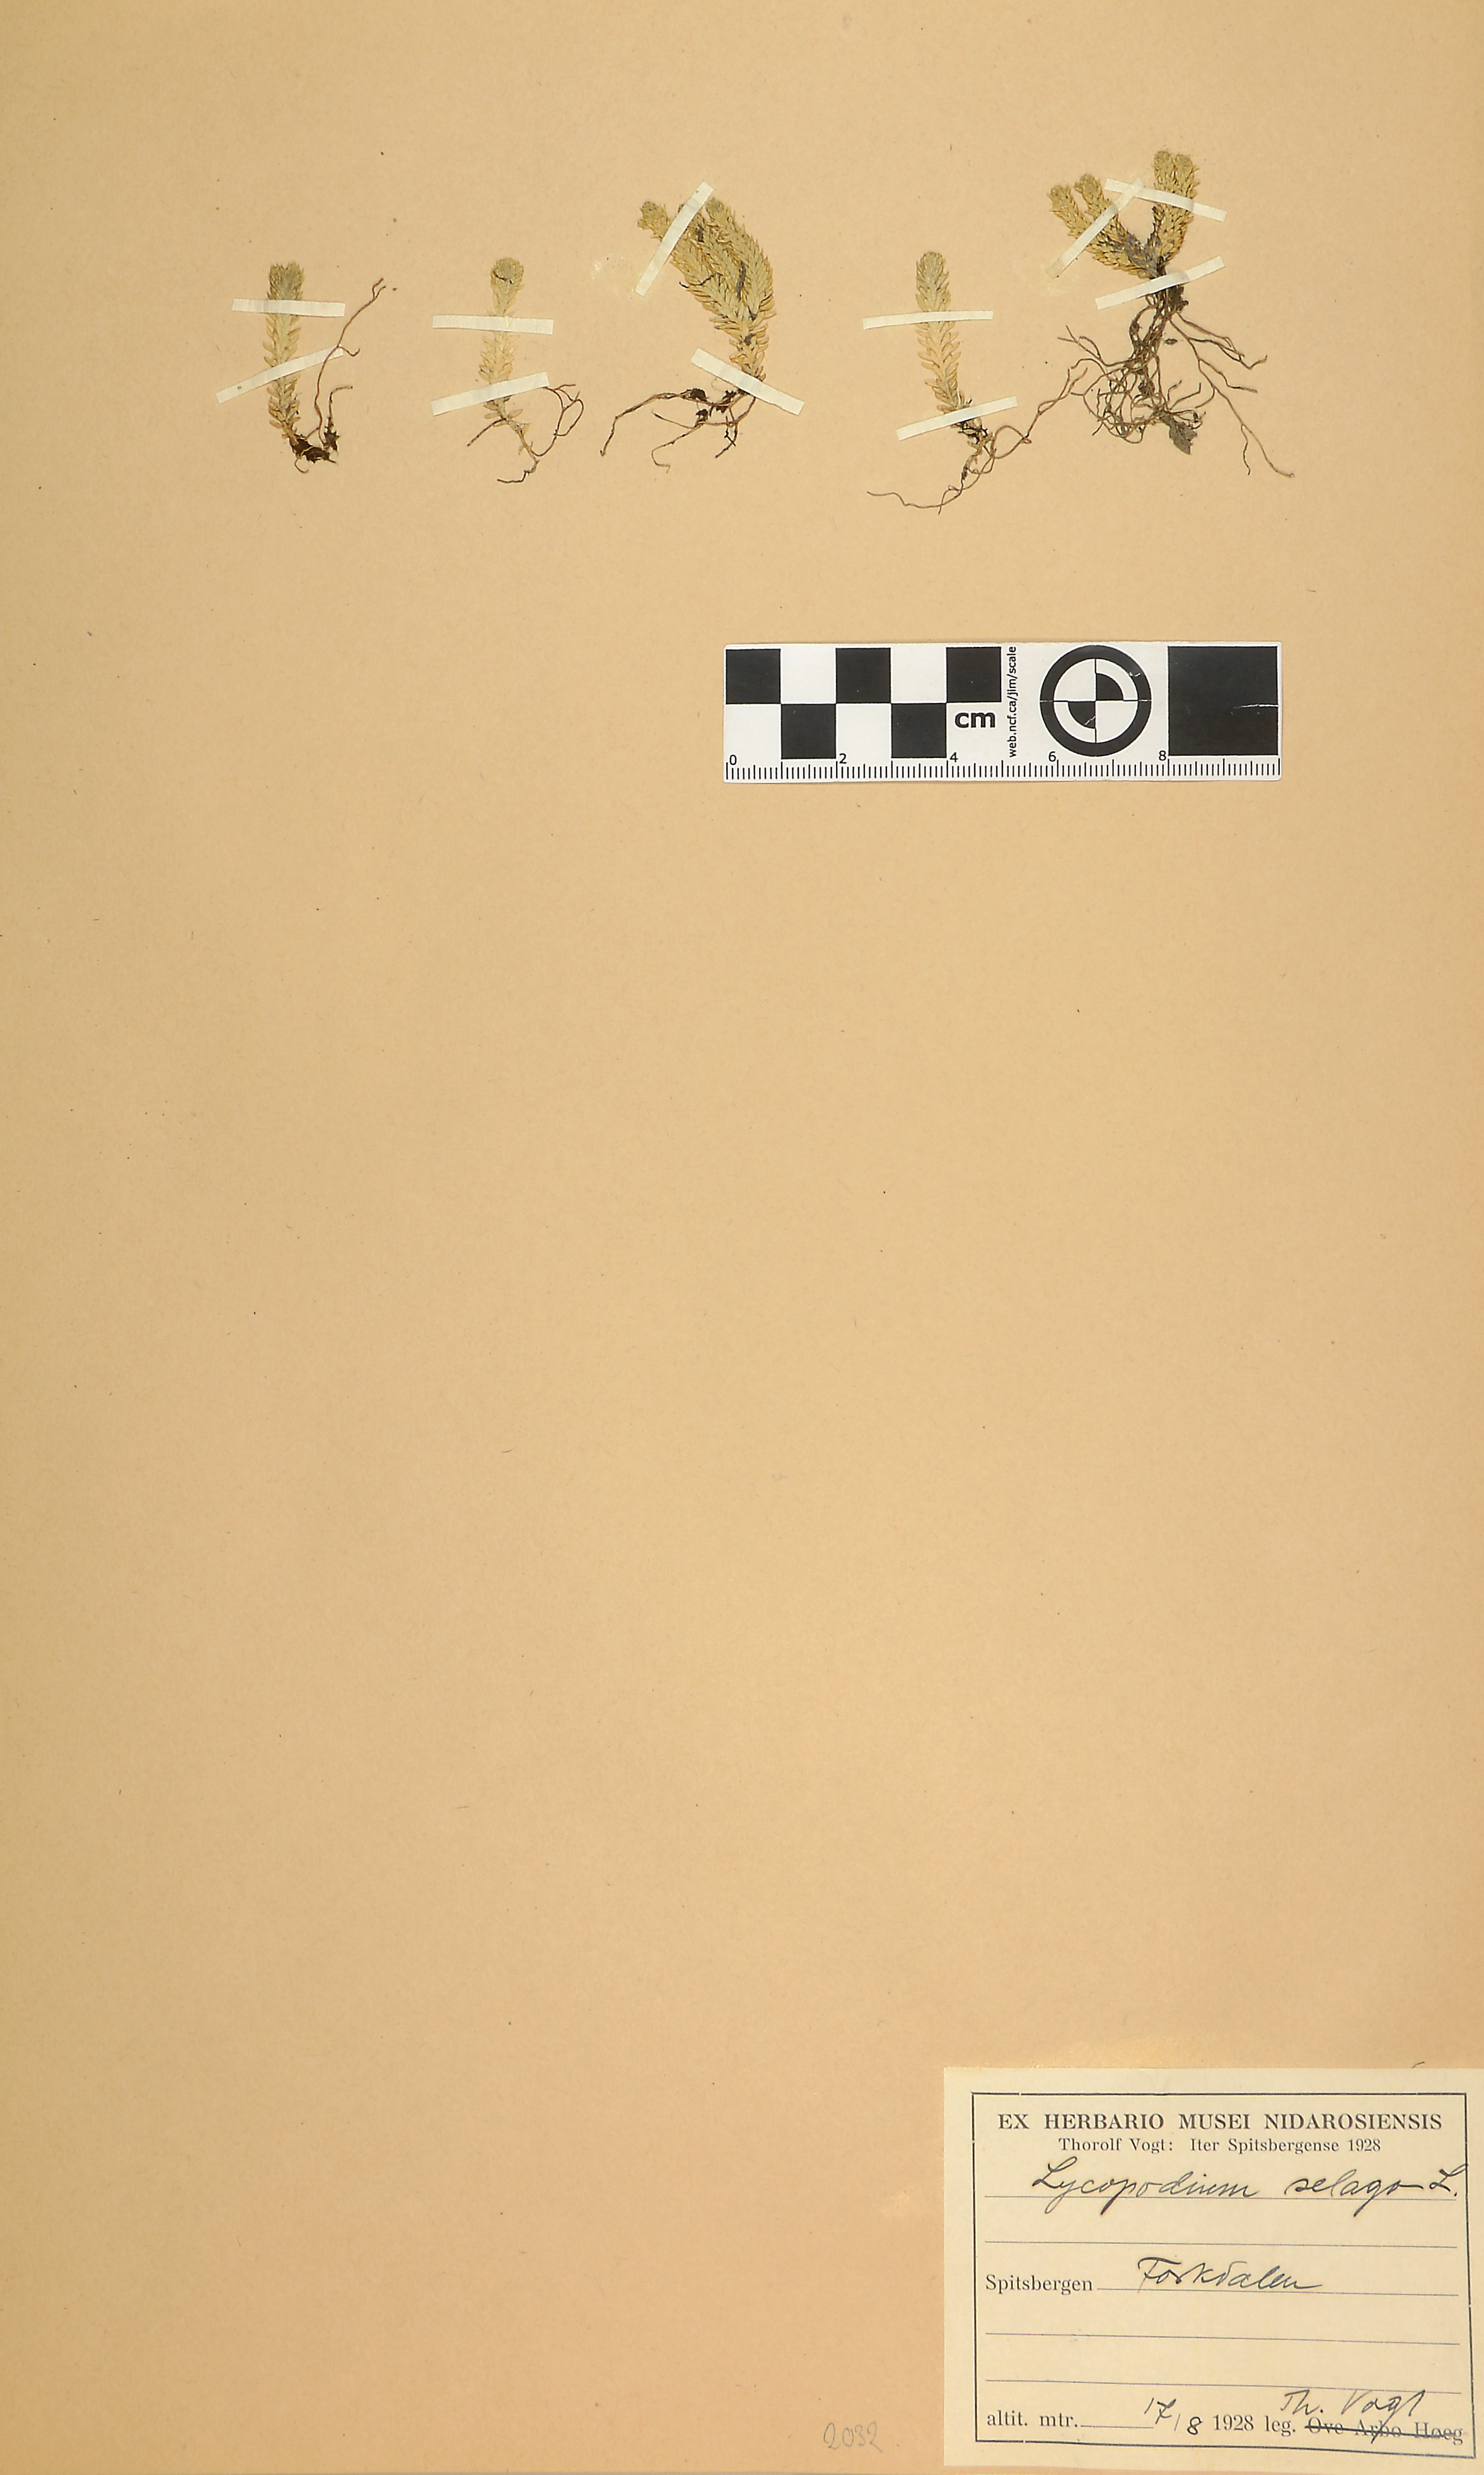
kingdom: Plantae
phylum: Tracheophyta
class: Lycopodiopsida
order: Lycopodiales
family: Lycopodiaceae
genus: Huperzia
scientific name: Huperzia selago
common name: Northern firmoss
